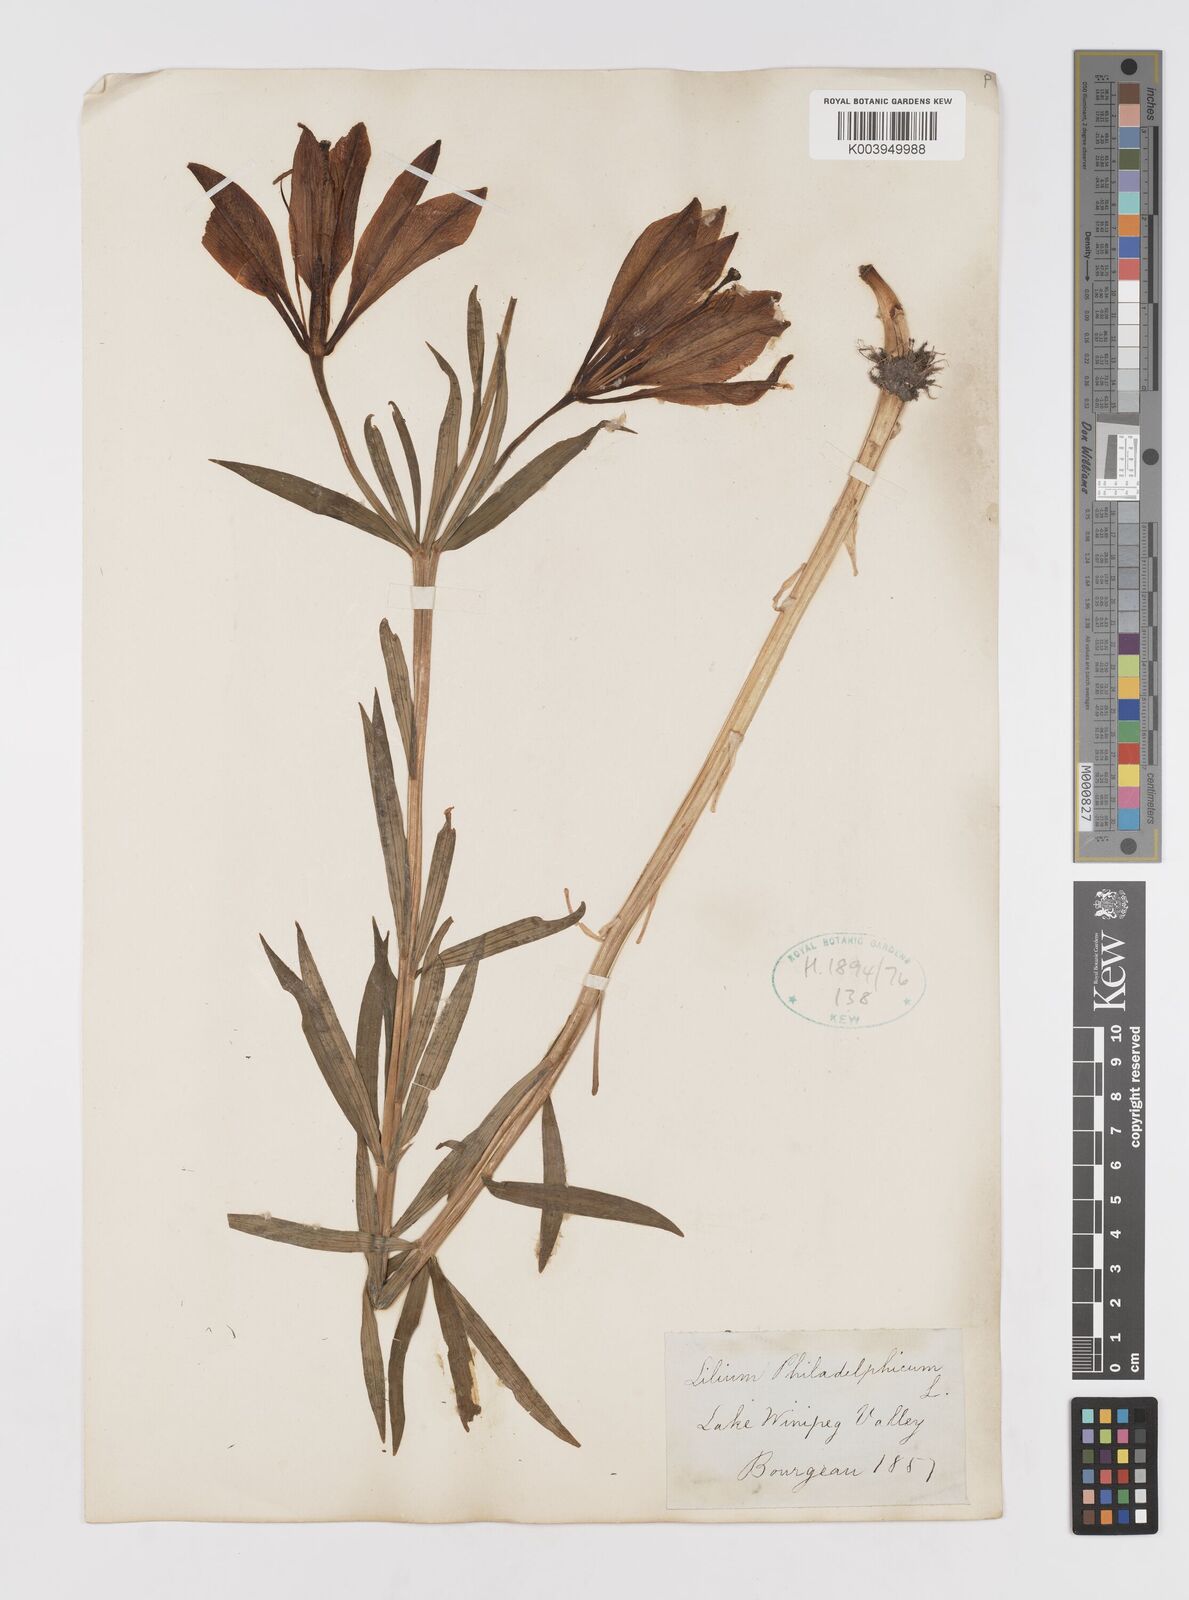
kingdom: Plantae
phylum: Tracheophyta
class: Liliopsida
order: Liliales
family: Liliaceae
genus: Lilium
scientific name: Lilium philadelphicum
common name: Red lily
